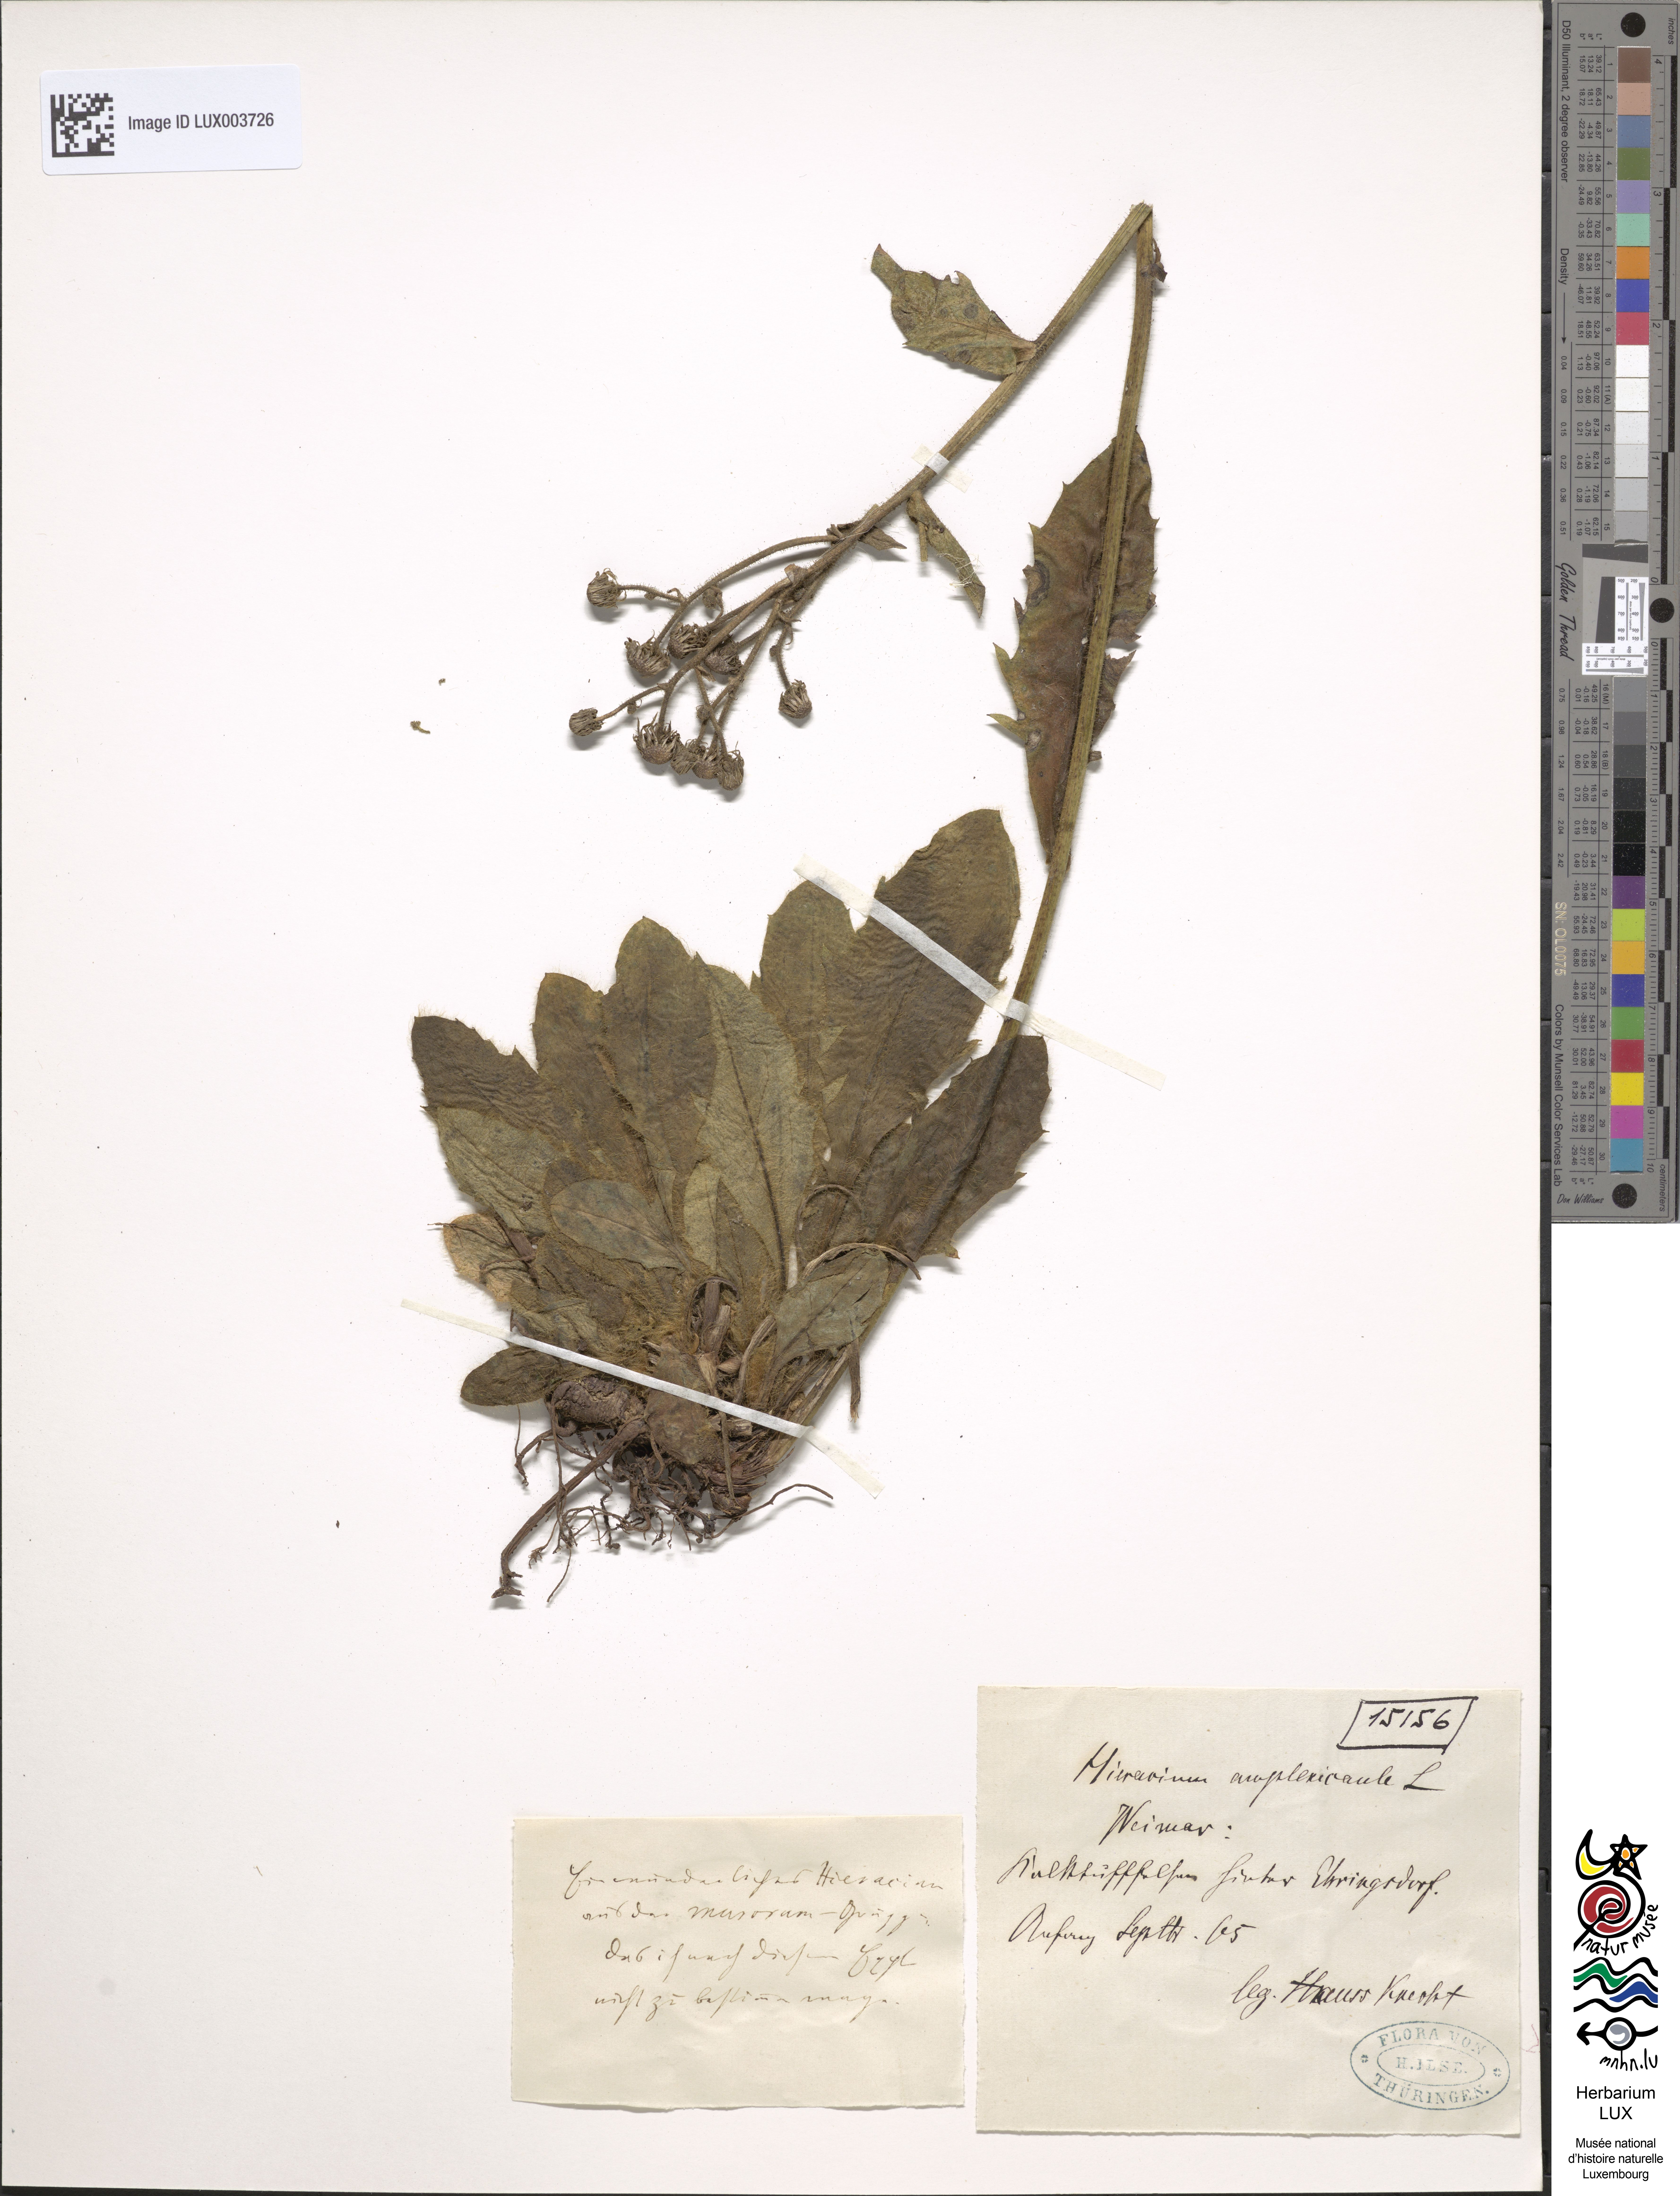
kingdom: Plantae
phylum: Tracheophyta
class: Magnoliopsida
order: Asterales
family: Asteraceae
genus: Hieracium
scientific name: Hieracium amplexicaule
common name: Sticky hawkweed
